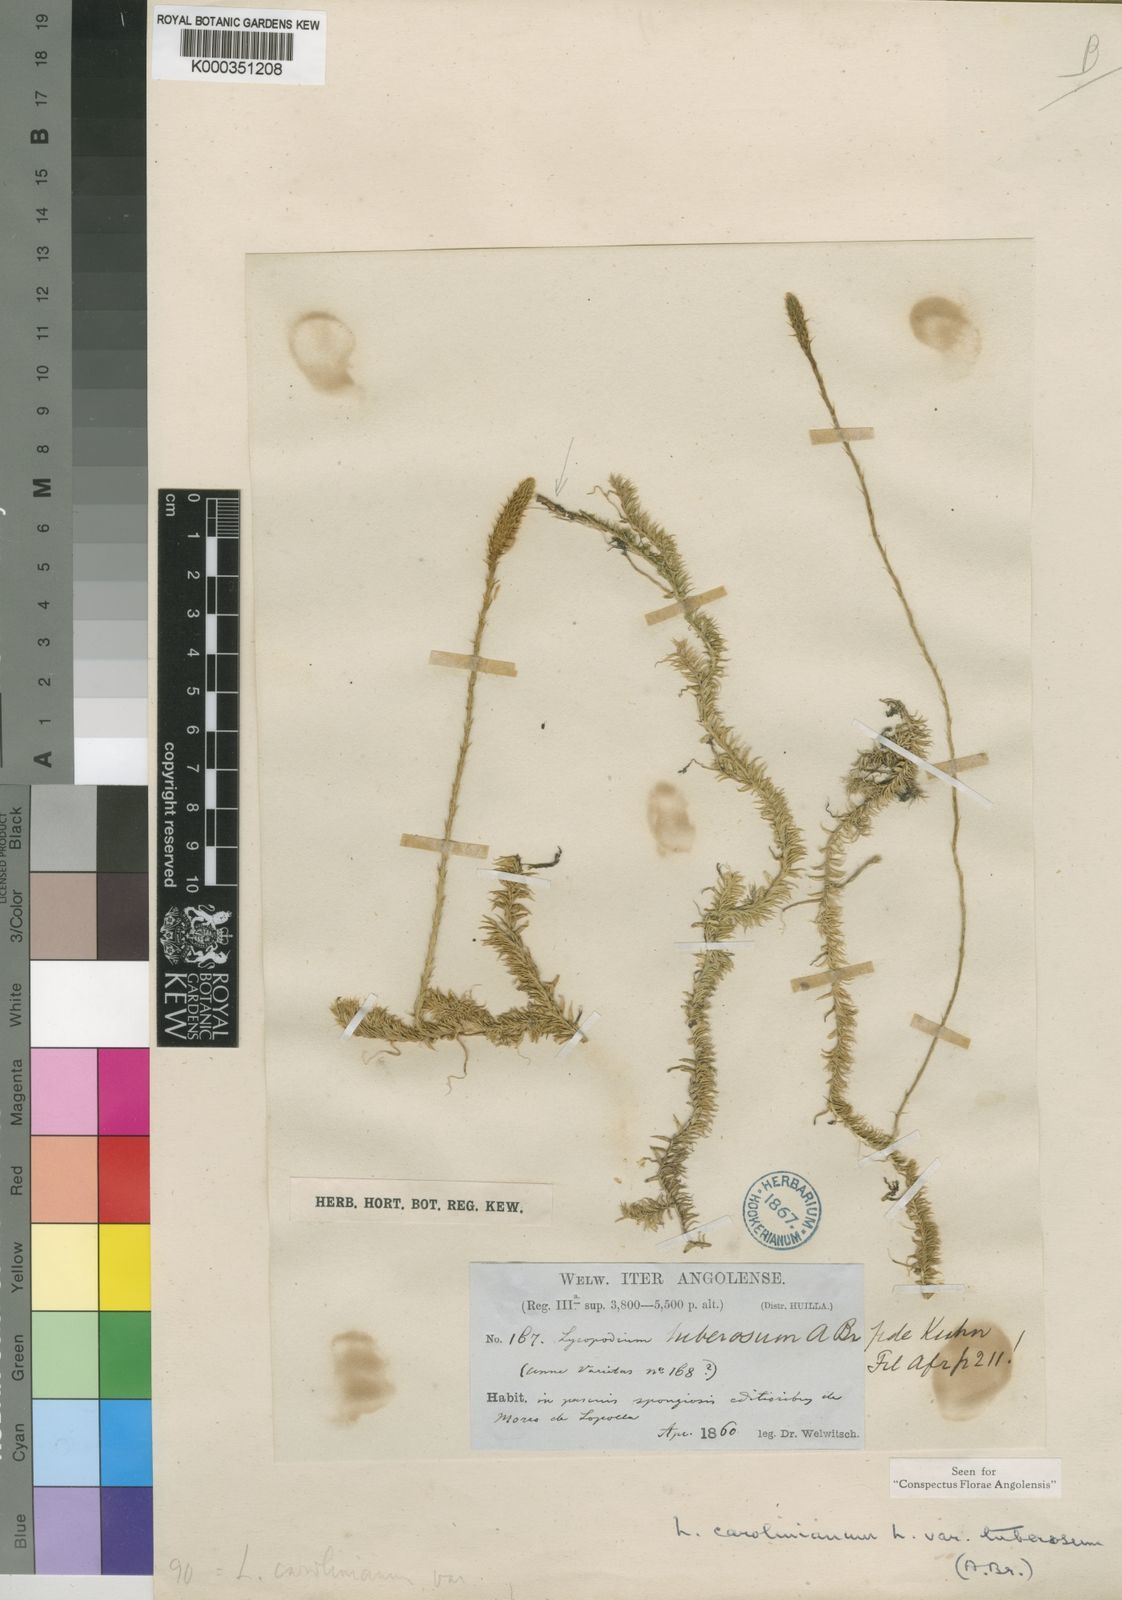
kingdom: Plantae
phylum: Tracheophyta
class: Lycopodiopsida
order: Lycopodiales
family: Lycopodiaceae
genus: Lycopodium
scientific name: Lycopodium
